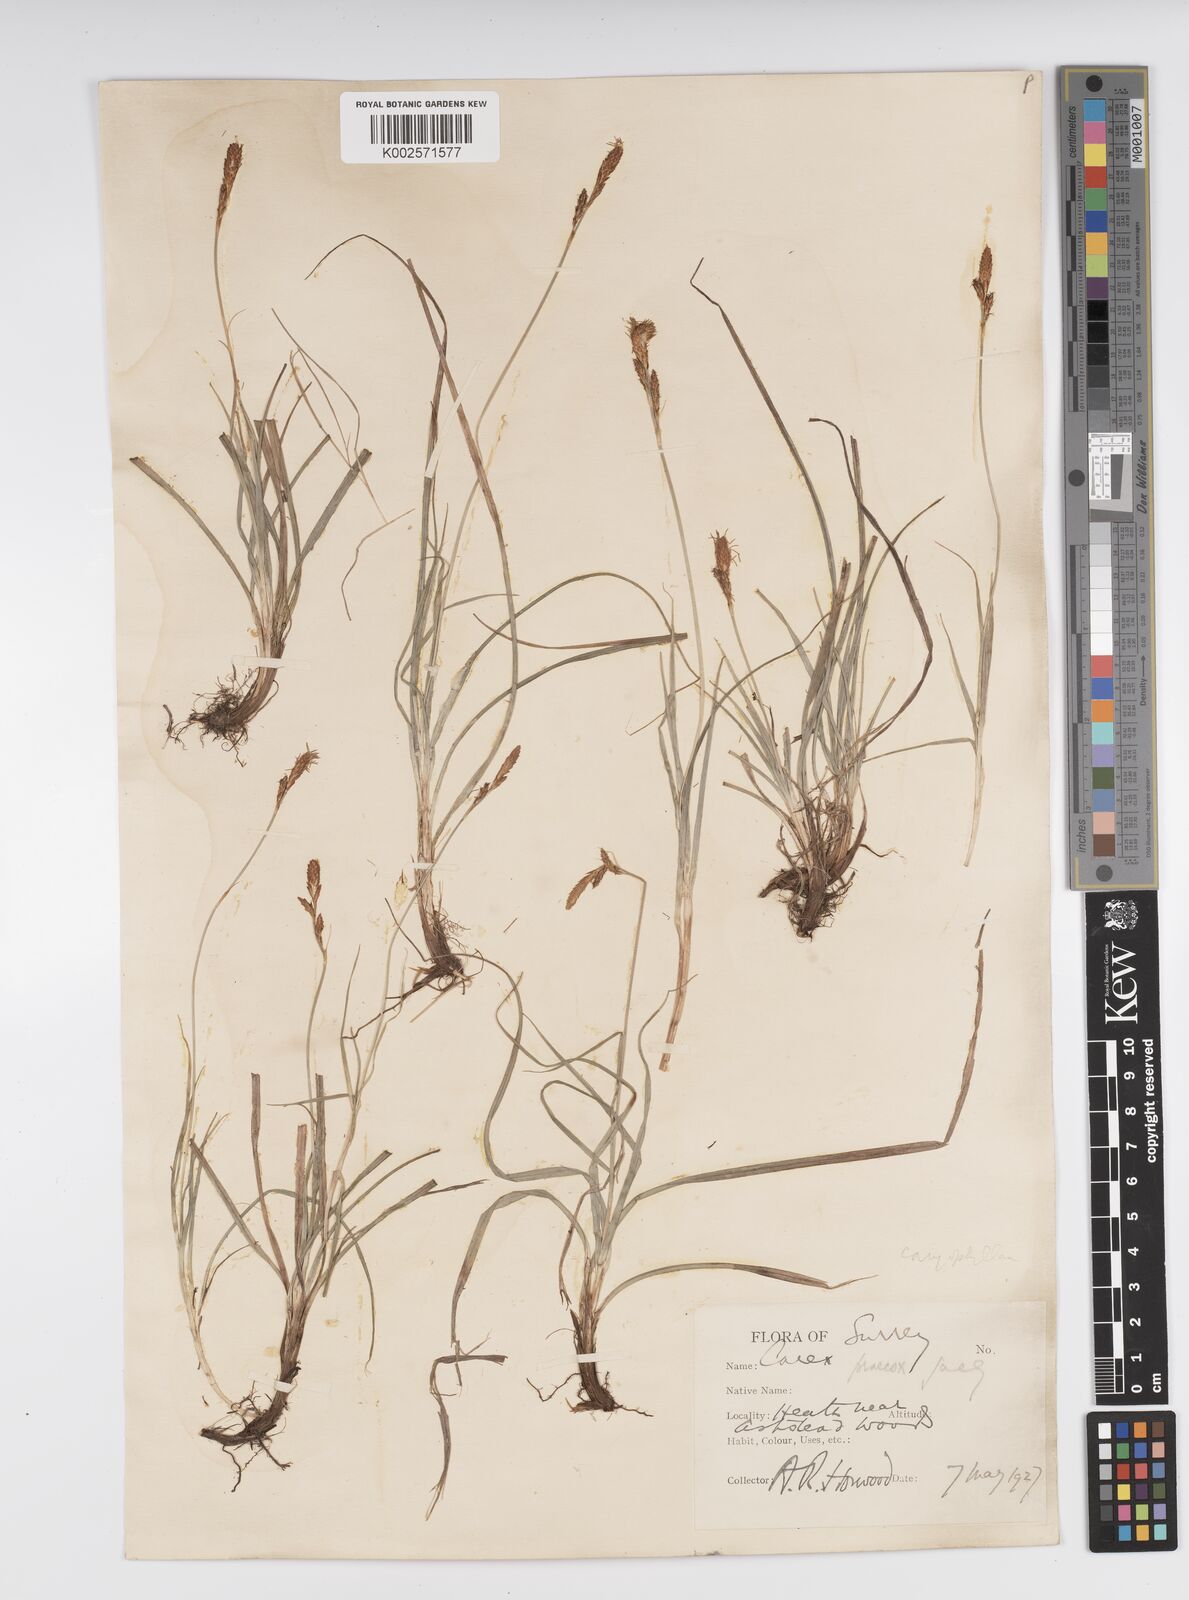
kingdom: Plantae
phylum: Tracheophyta
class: Liliopsida
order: Poales
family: Cyperaceae
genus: Carex
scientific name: Carex caryophyllea
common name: Spring sedge
